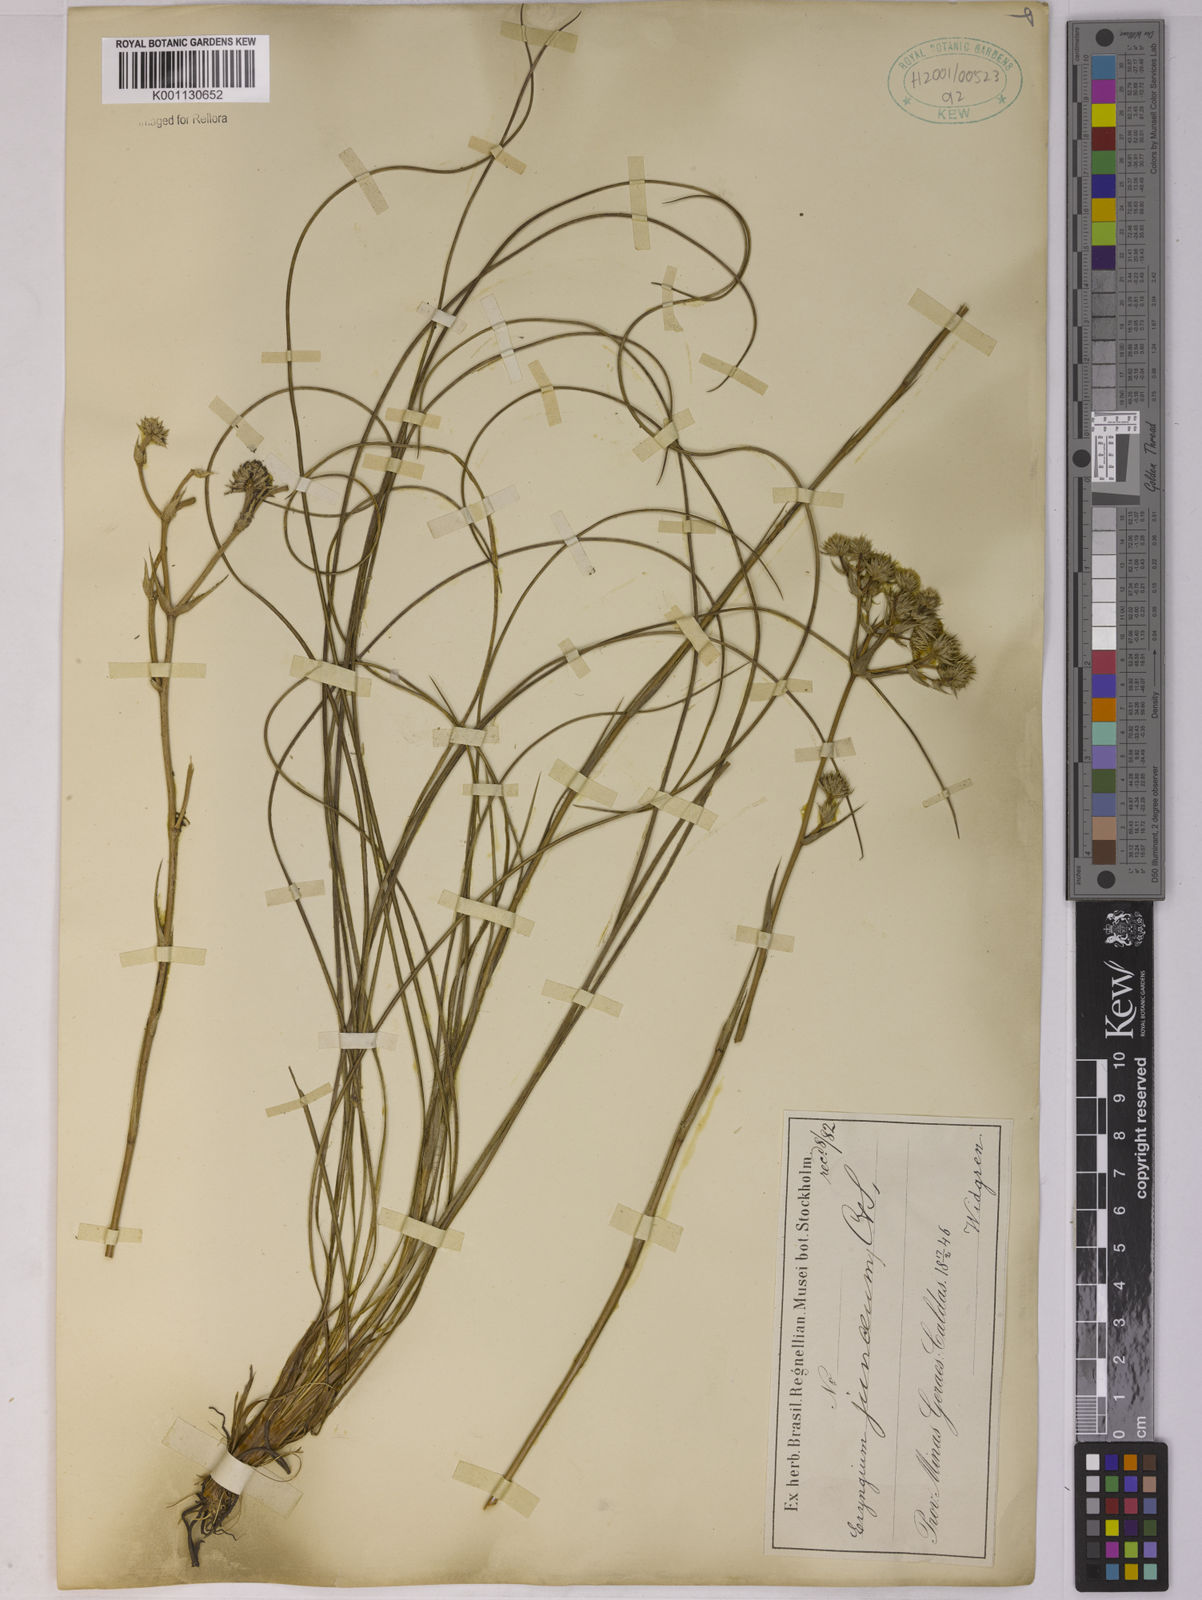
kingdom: Plantae
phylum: Tracheophyta
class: Magnoliopsida
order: Apiales
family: Apiaceae
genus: Eryngium
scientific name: Eryngium junceum
